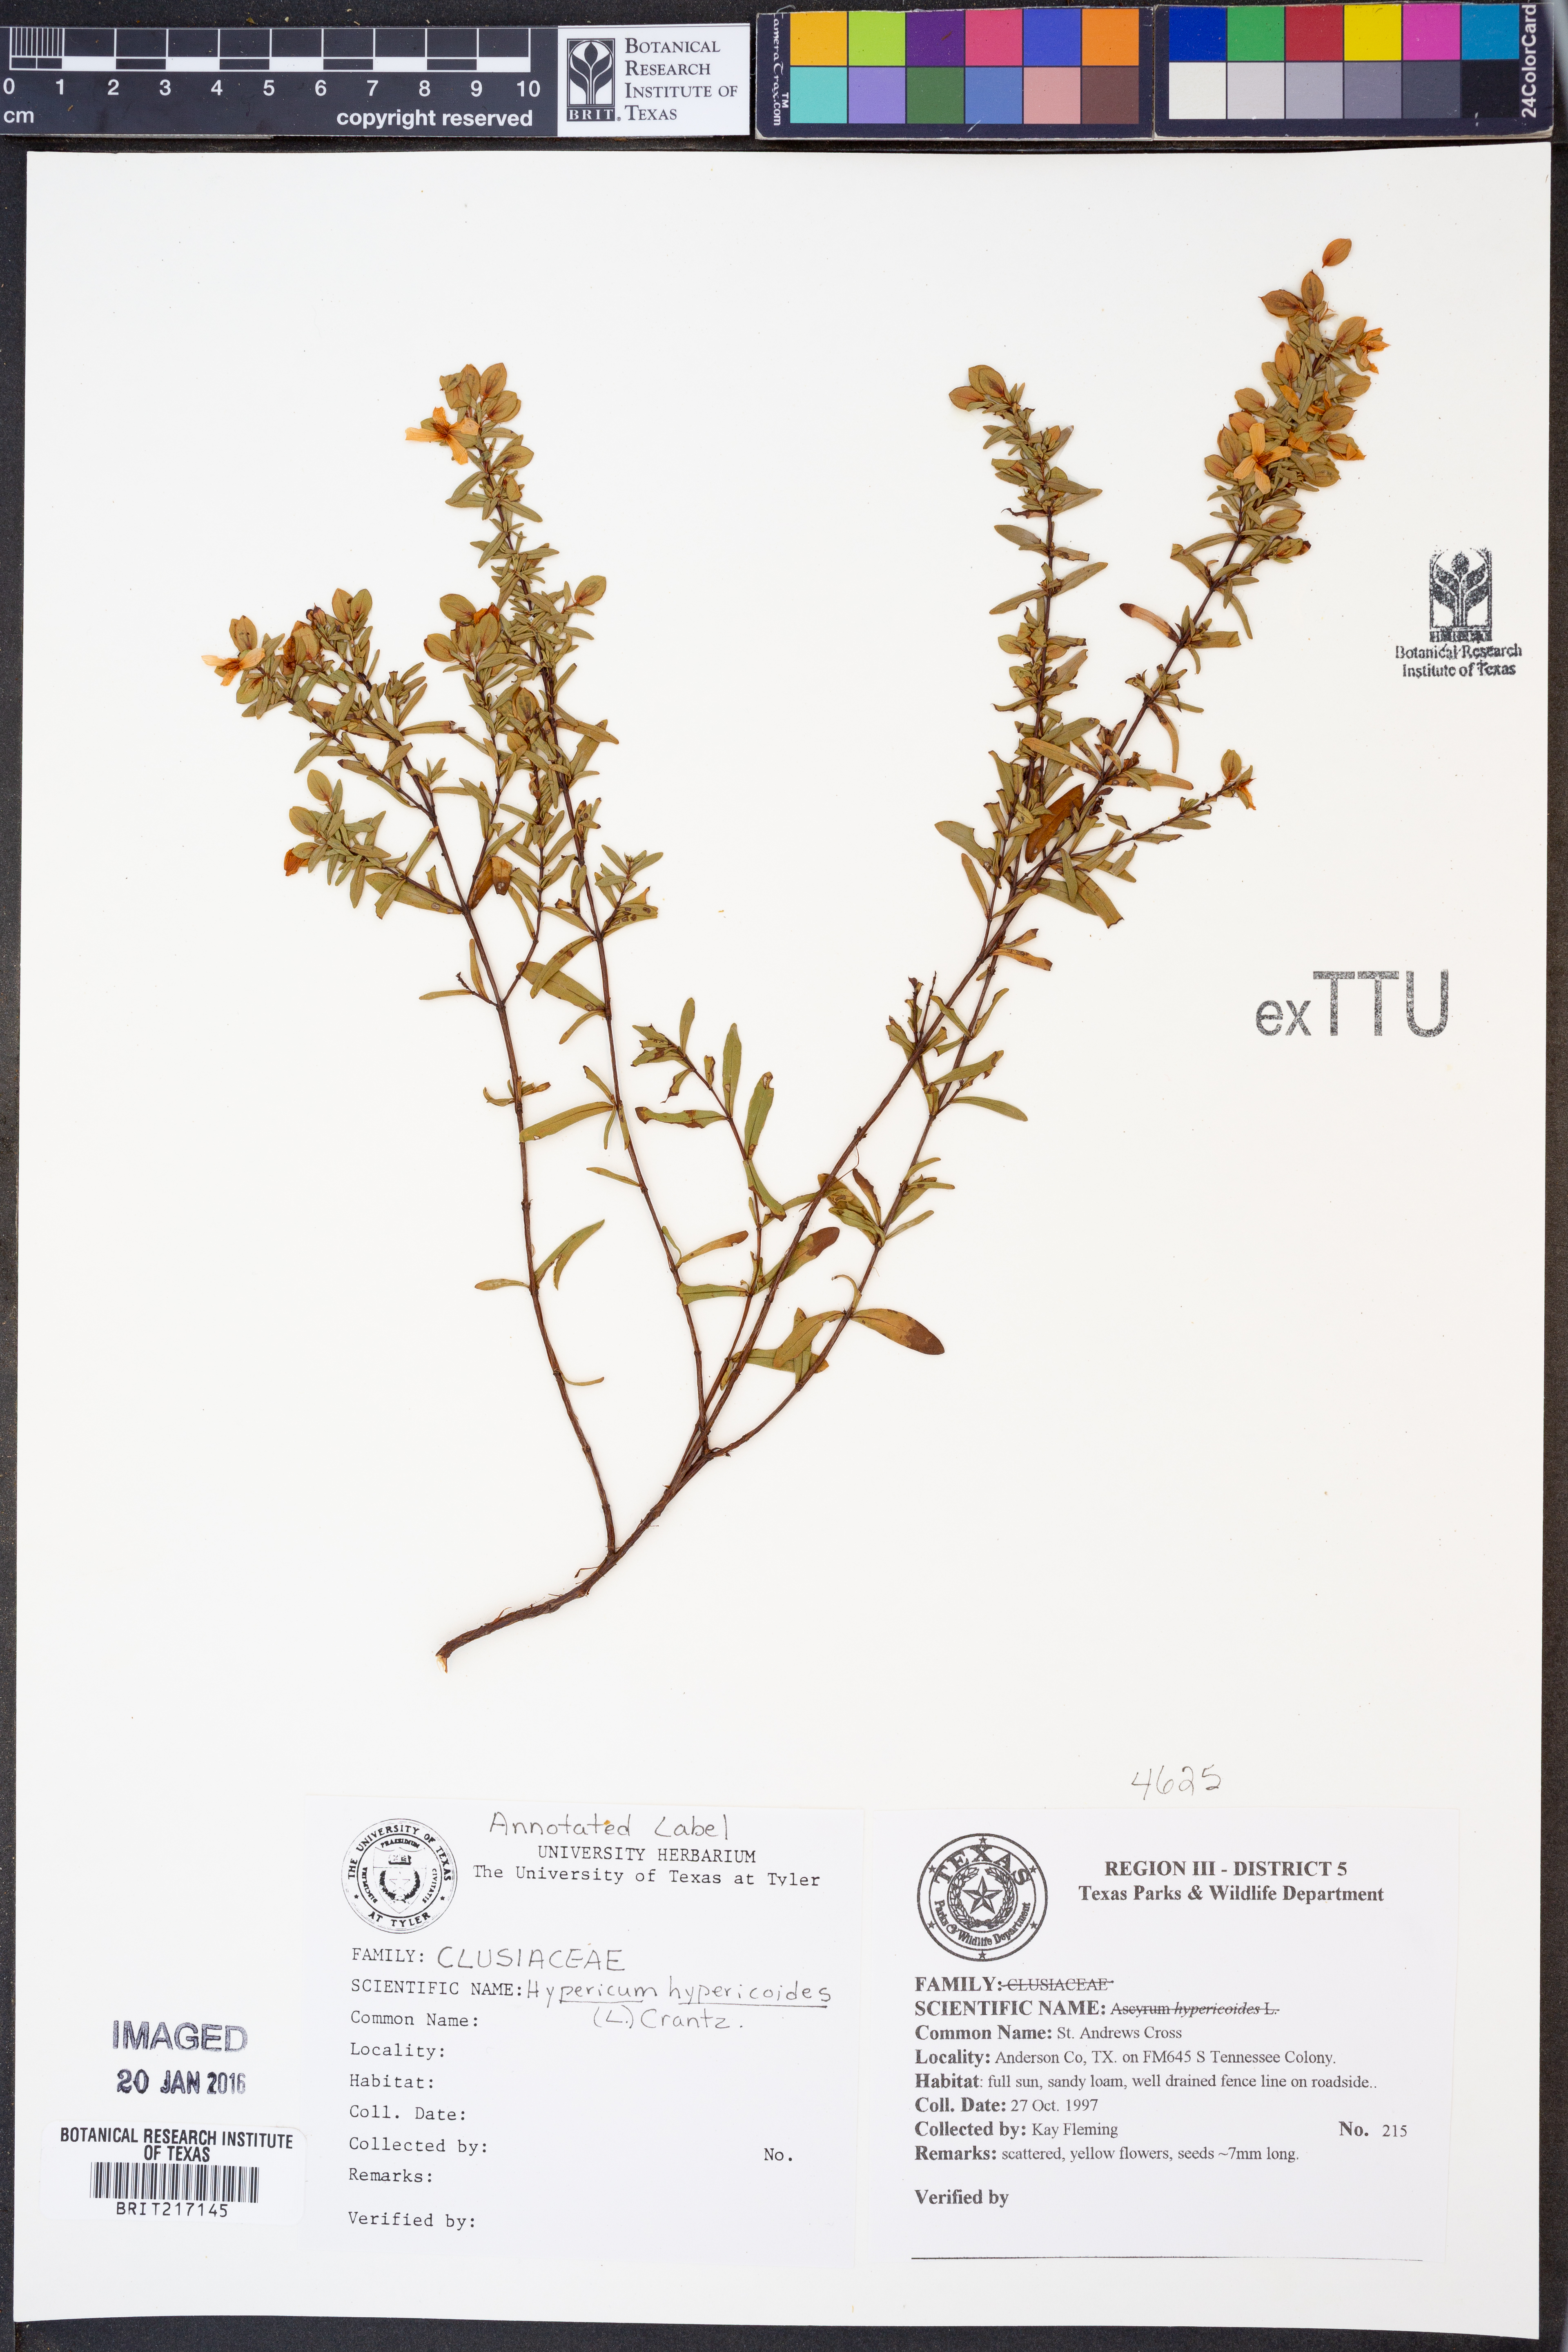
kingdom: Plantae
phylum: Tracheophyta
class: Magnoliopsida
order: Malpighiales
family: Hypericaceae
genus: Hypericum
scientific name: Hypericum hypericoides
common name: St. andrew's cross
